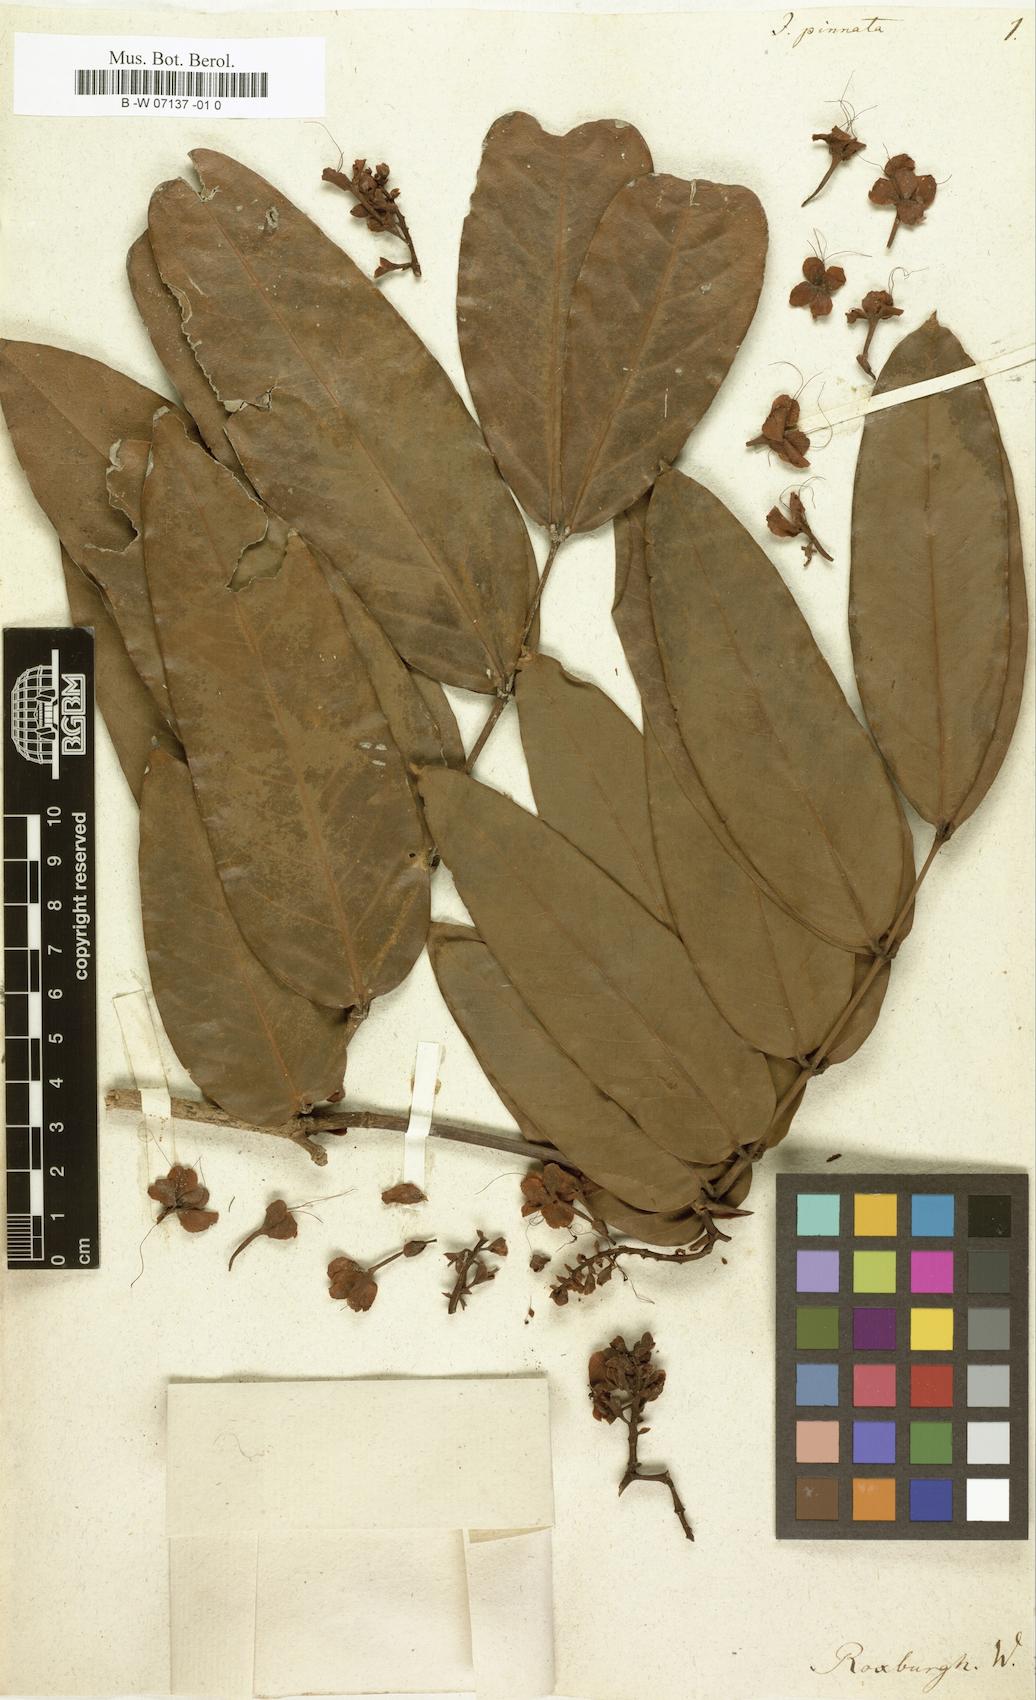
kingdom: Plantae
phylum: Tracheophyta
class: Magnoliopsida
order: Fabales
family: Fabaceae
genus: Saraca
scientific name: Saraca indica
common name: Asoka-tree
